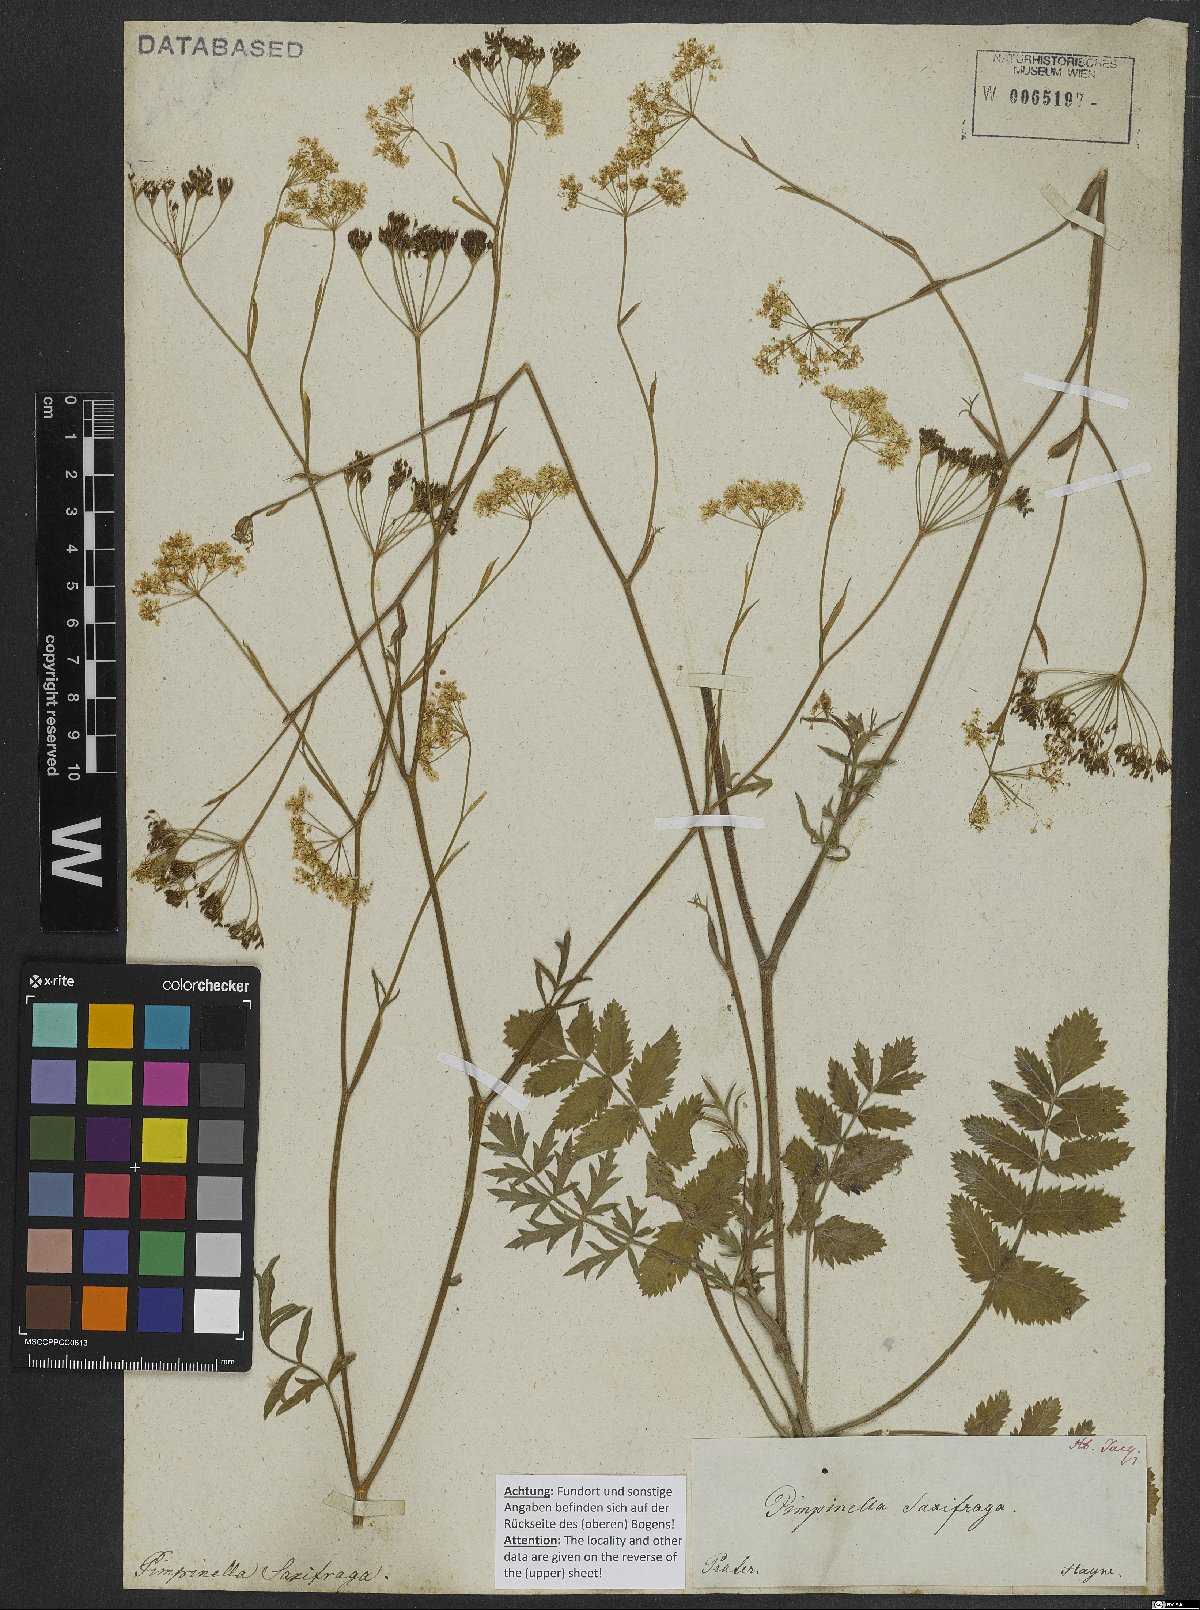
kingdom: Plantae
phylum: Tracheophyta
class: Magnoliopsida
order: Apiales
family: Apiaceae
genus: Pimpinella
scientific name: Pimpinella saxifraga
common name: Burnet-saxifrage
